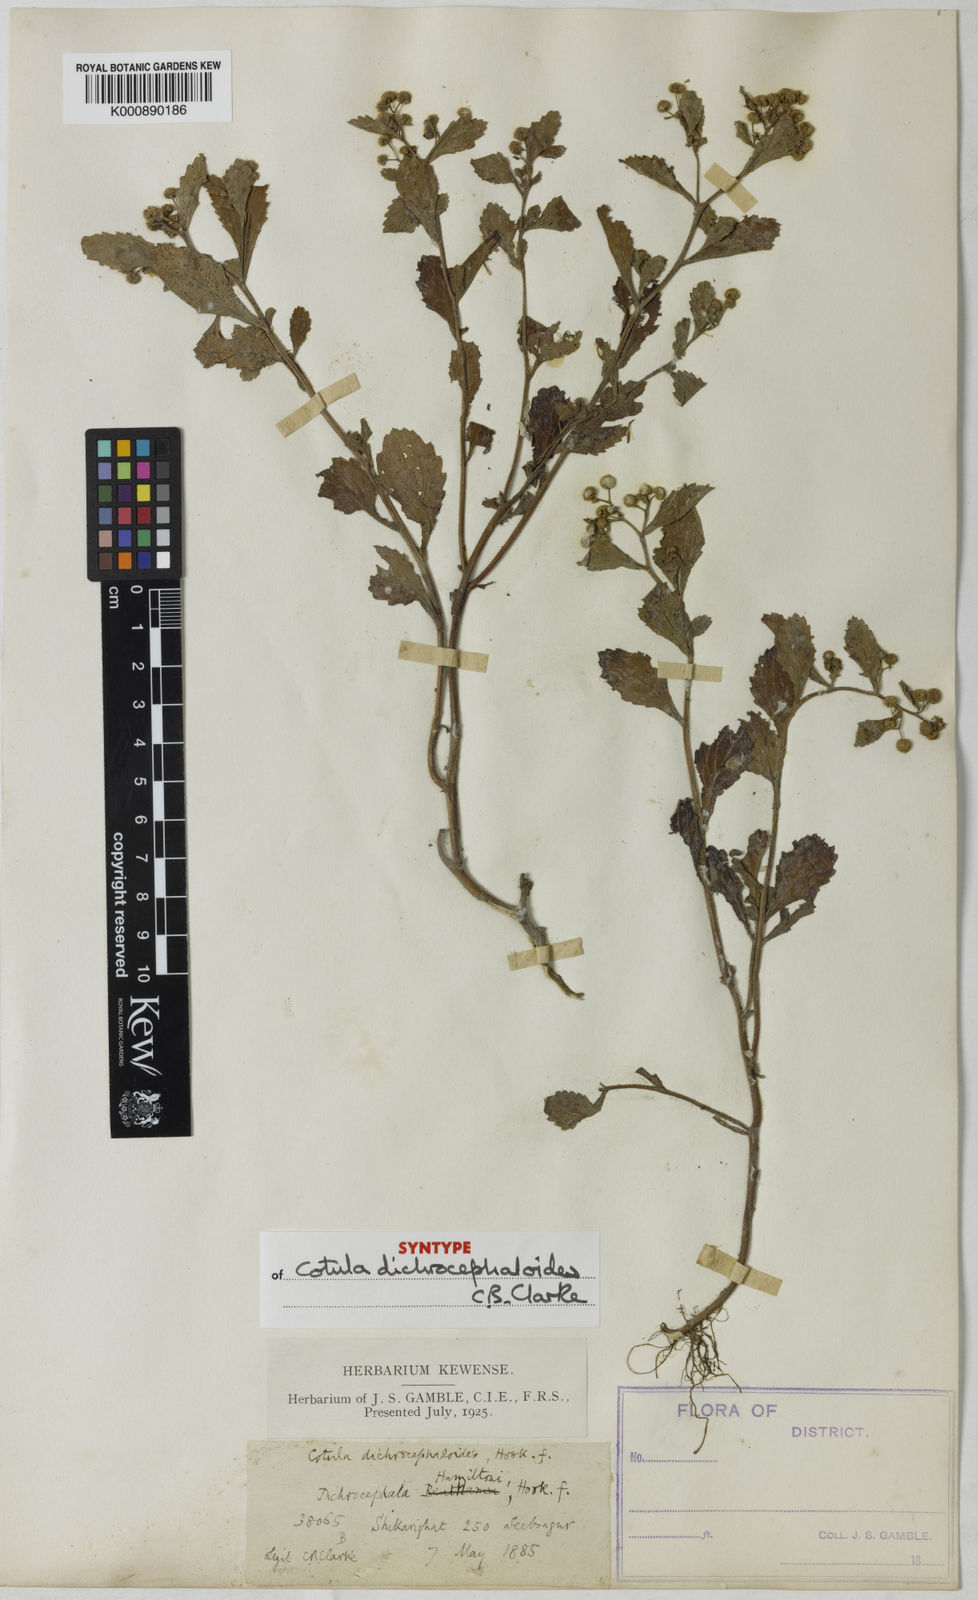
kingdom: Plantae
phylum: Tracheophyta
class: Magnoliopsida
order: Asterales
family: Asteraceae
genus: Dichrocephala
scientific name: Dichrocephala integrifolia
